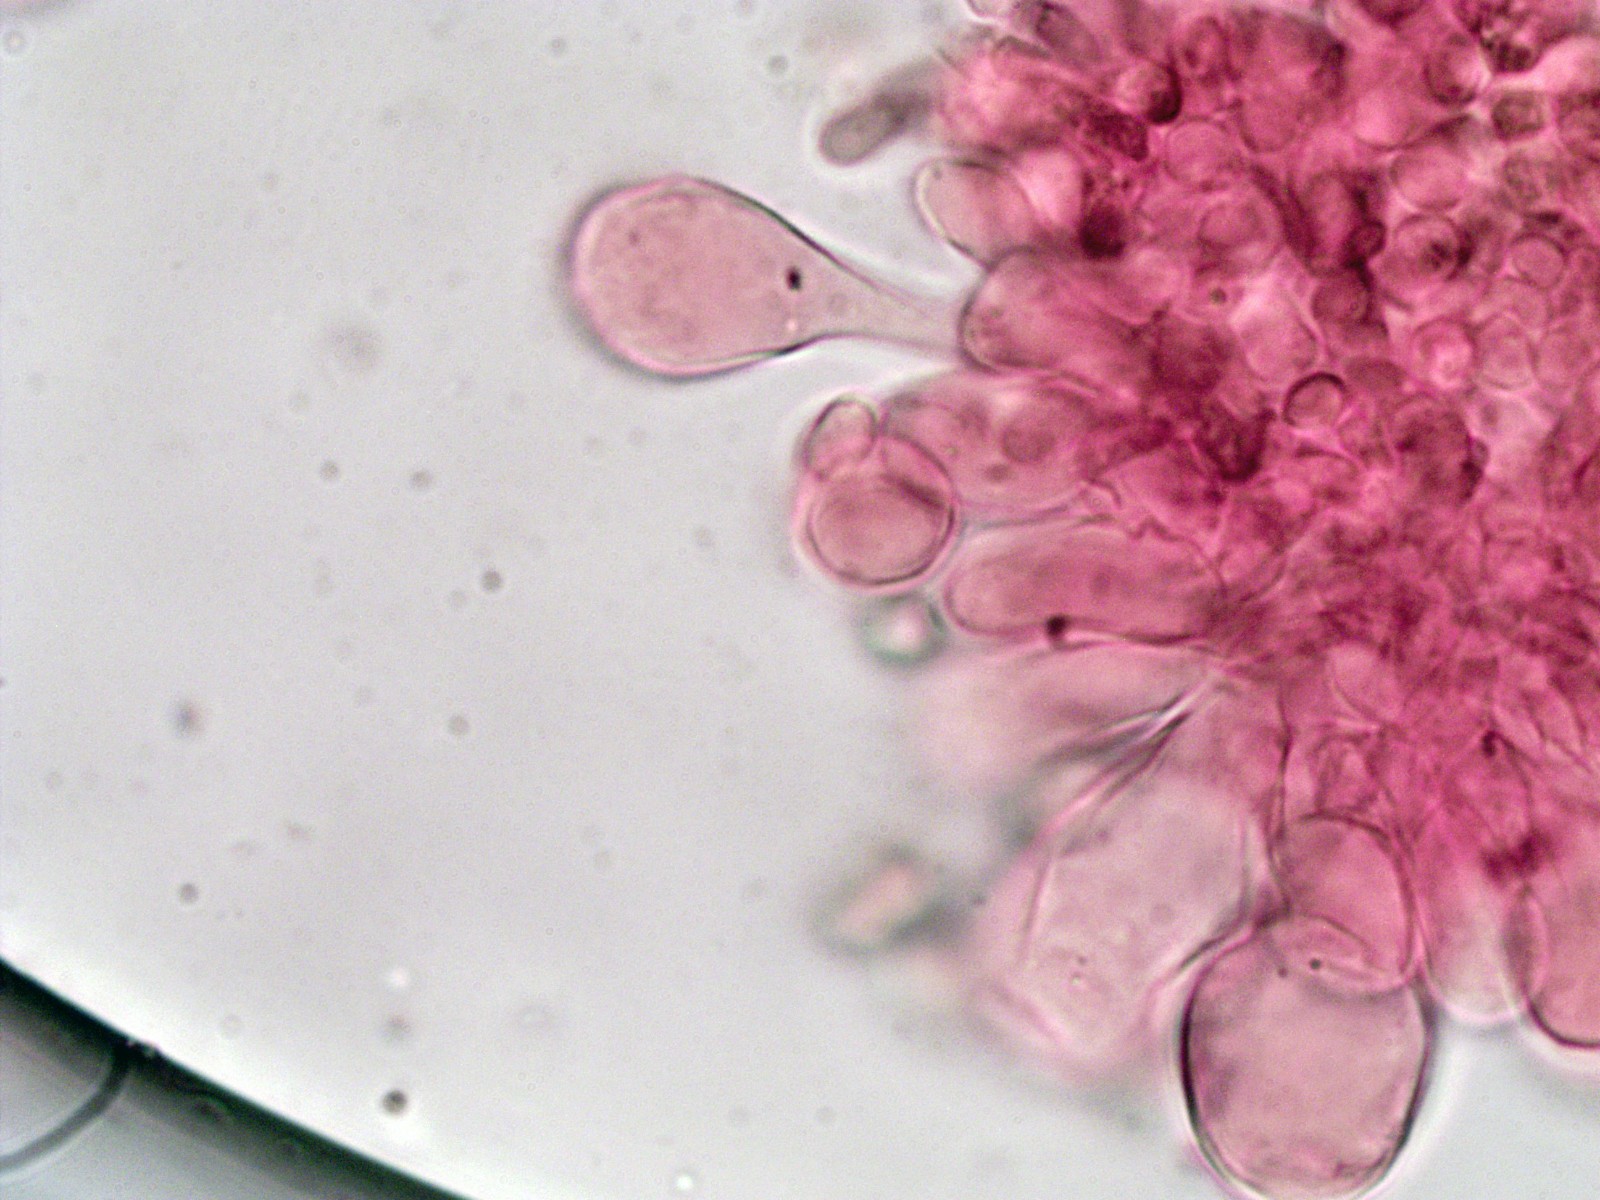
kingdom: Fungi
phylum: Basidiomycota
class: Agaricomycetes
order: Agaricales
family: Inocybaceae
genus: Inosperma
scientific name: Inosperma
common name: strågul trævlhat
